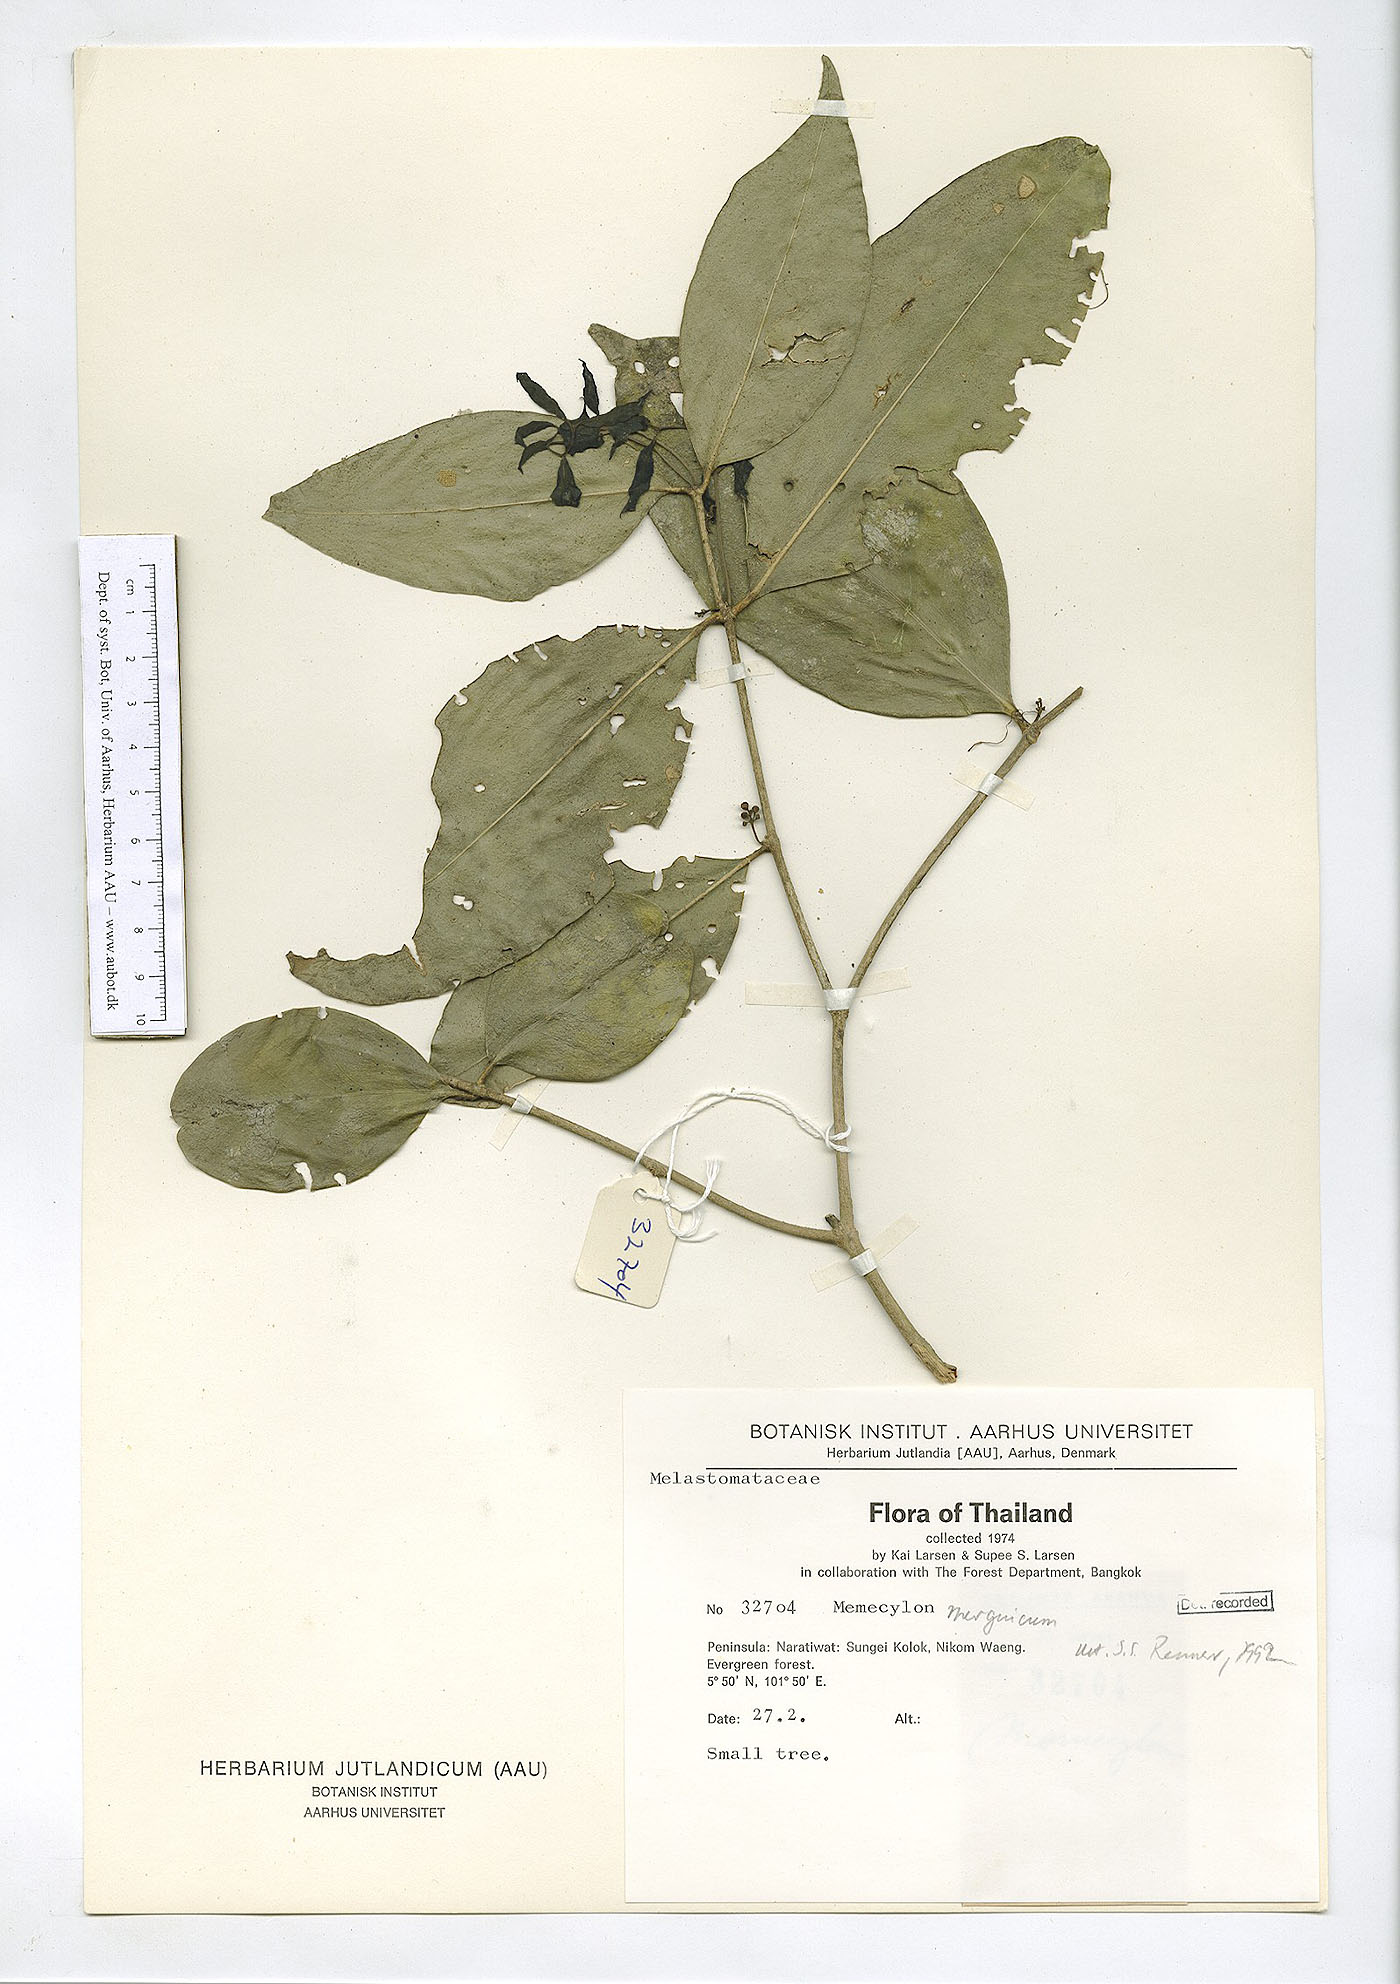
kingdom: Plantae
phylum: Tracheophyta
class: Magnoliopsida
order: Myrtales
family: Melastomataceae
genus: Memecylon
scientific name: Memecylon
